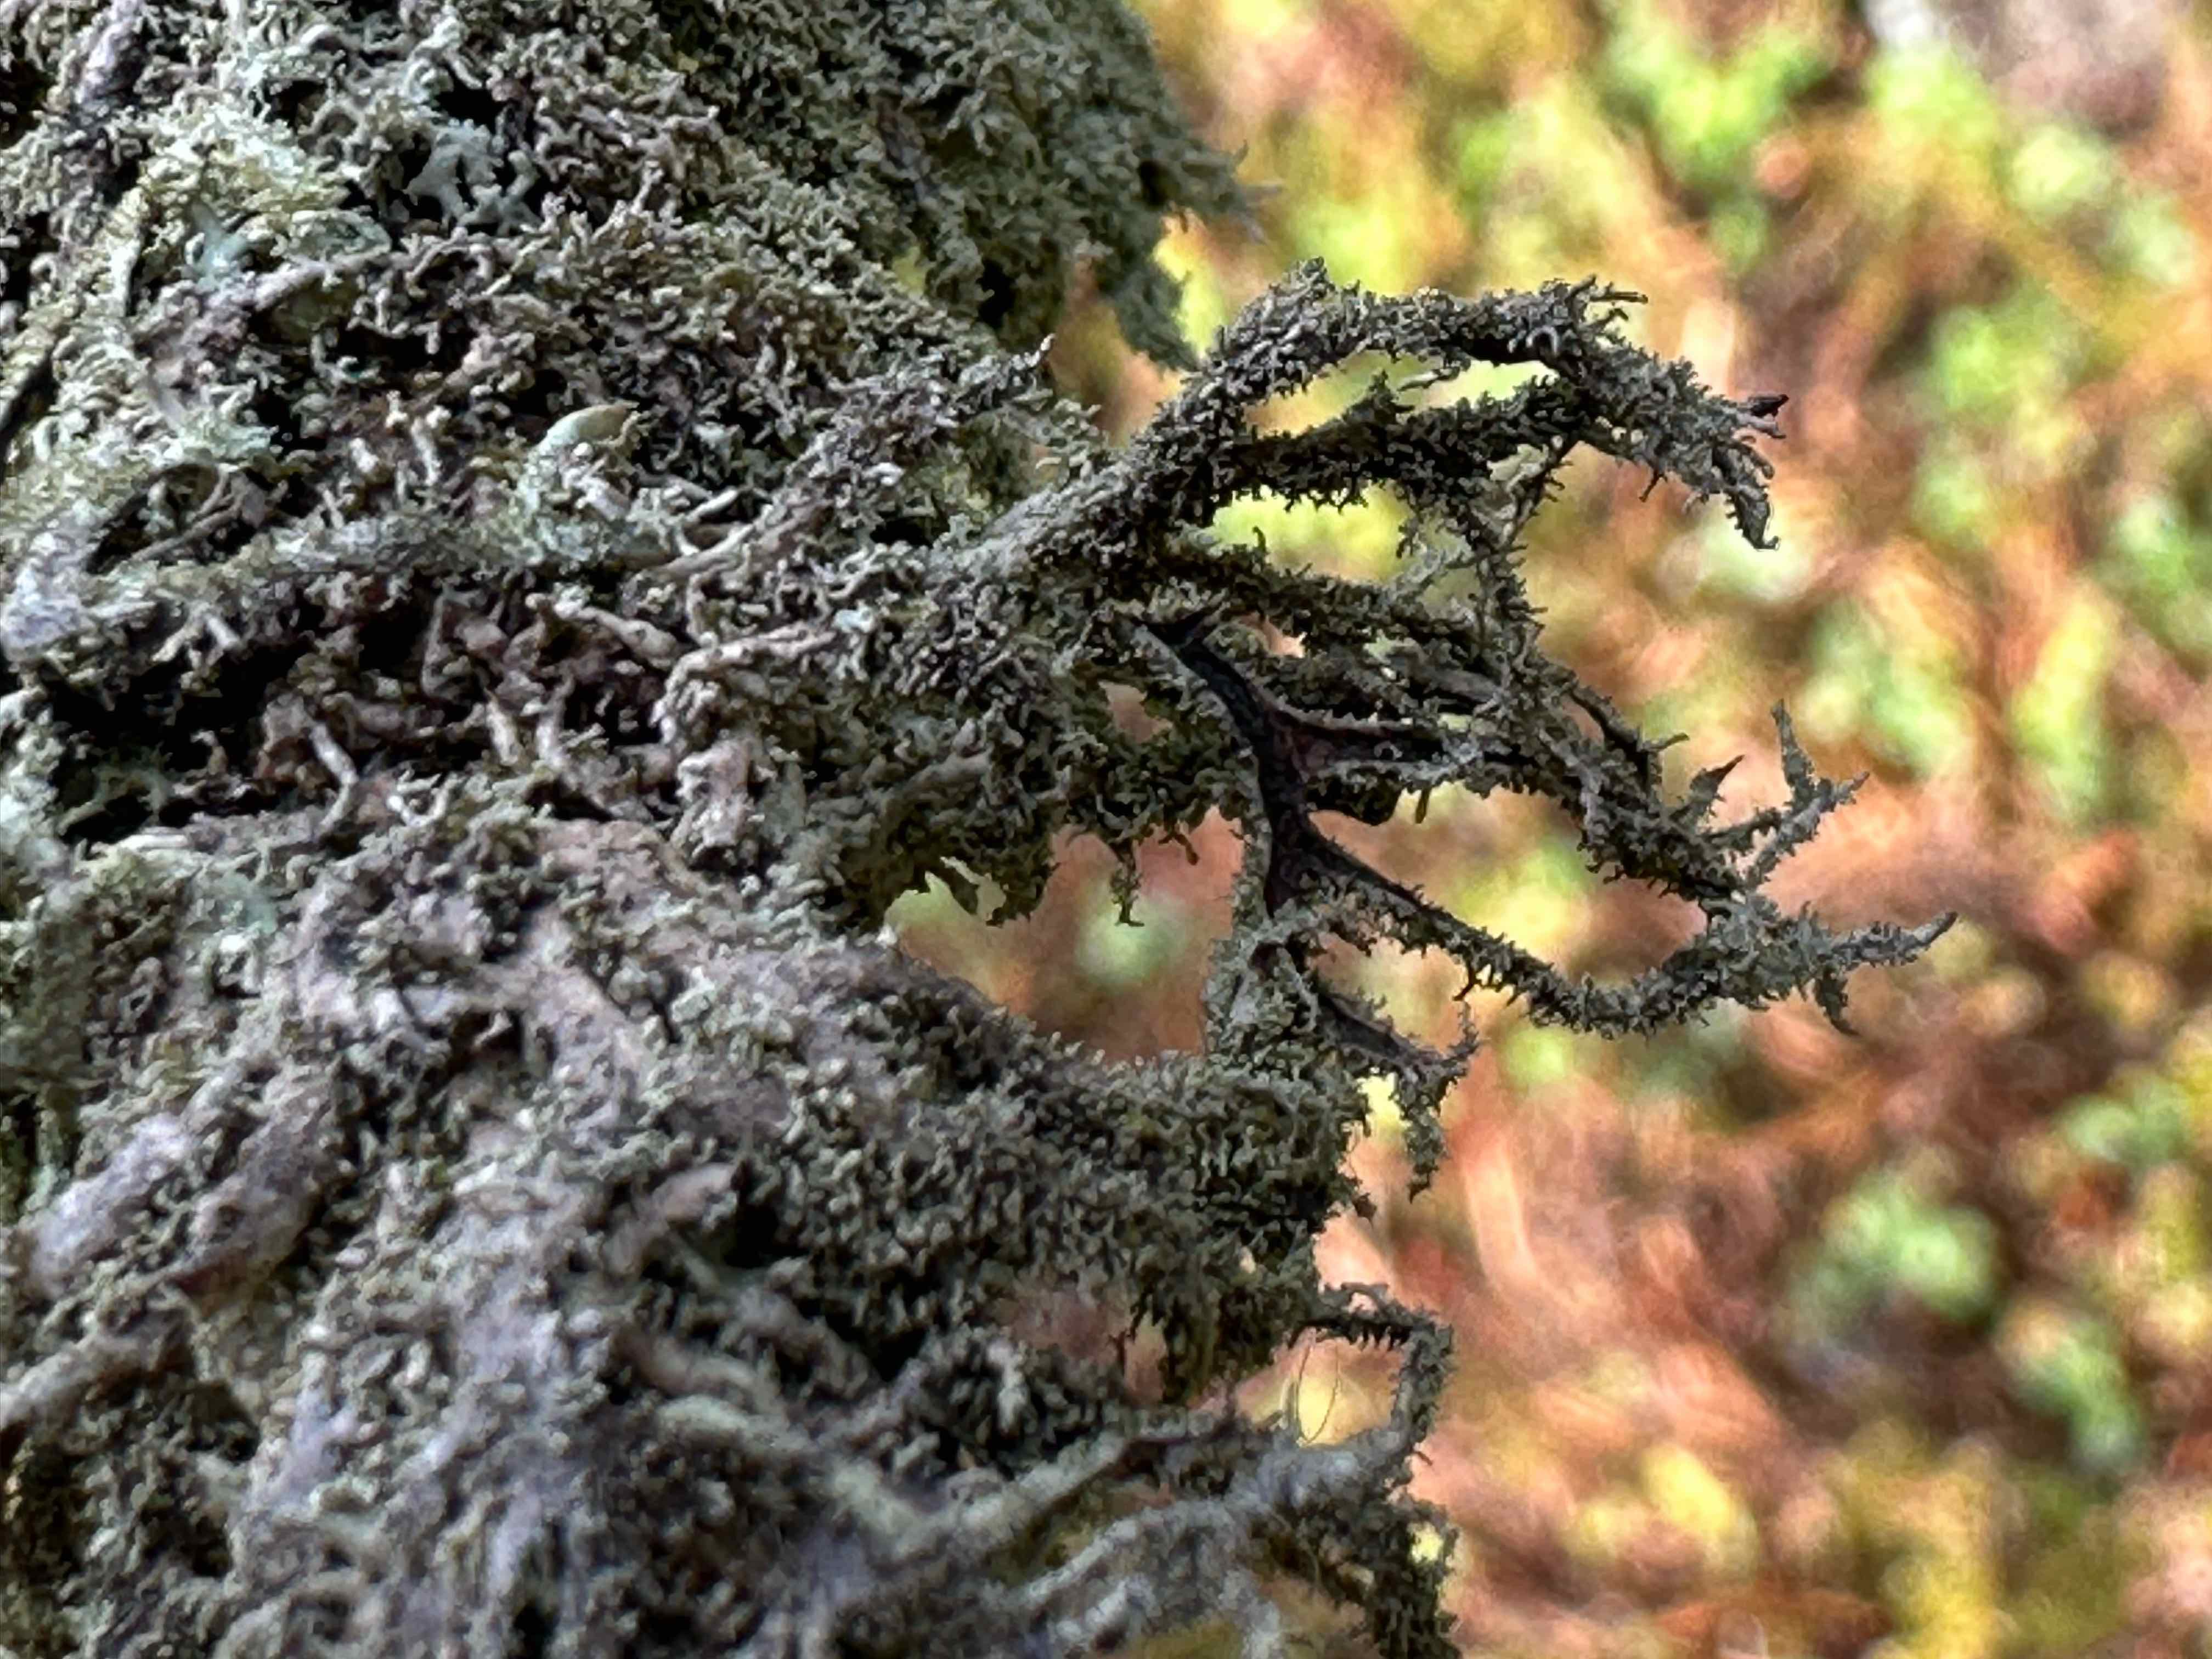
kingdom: Fungi
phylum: Ascomycota
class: Lecanoromycetes
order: Lecanorales
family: Parmeliaceae
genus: Pseudevernia
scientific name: Pseudevernia furfuracea
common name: grå fyrrelav
